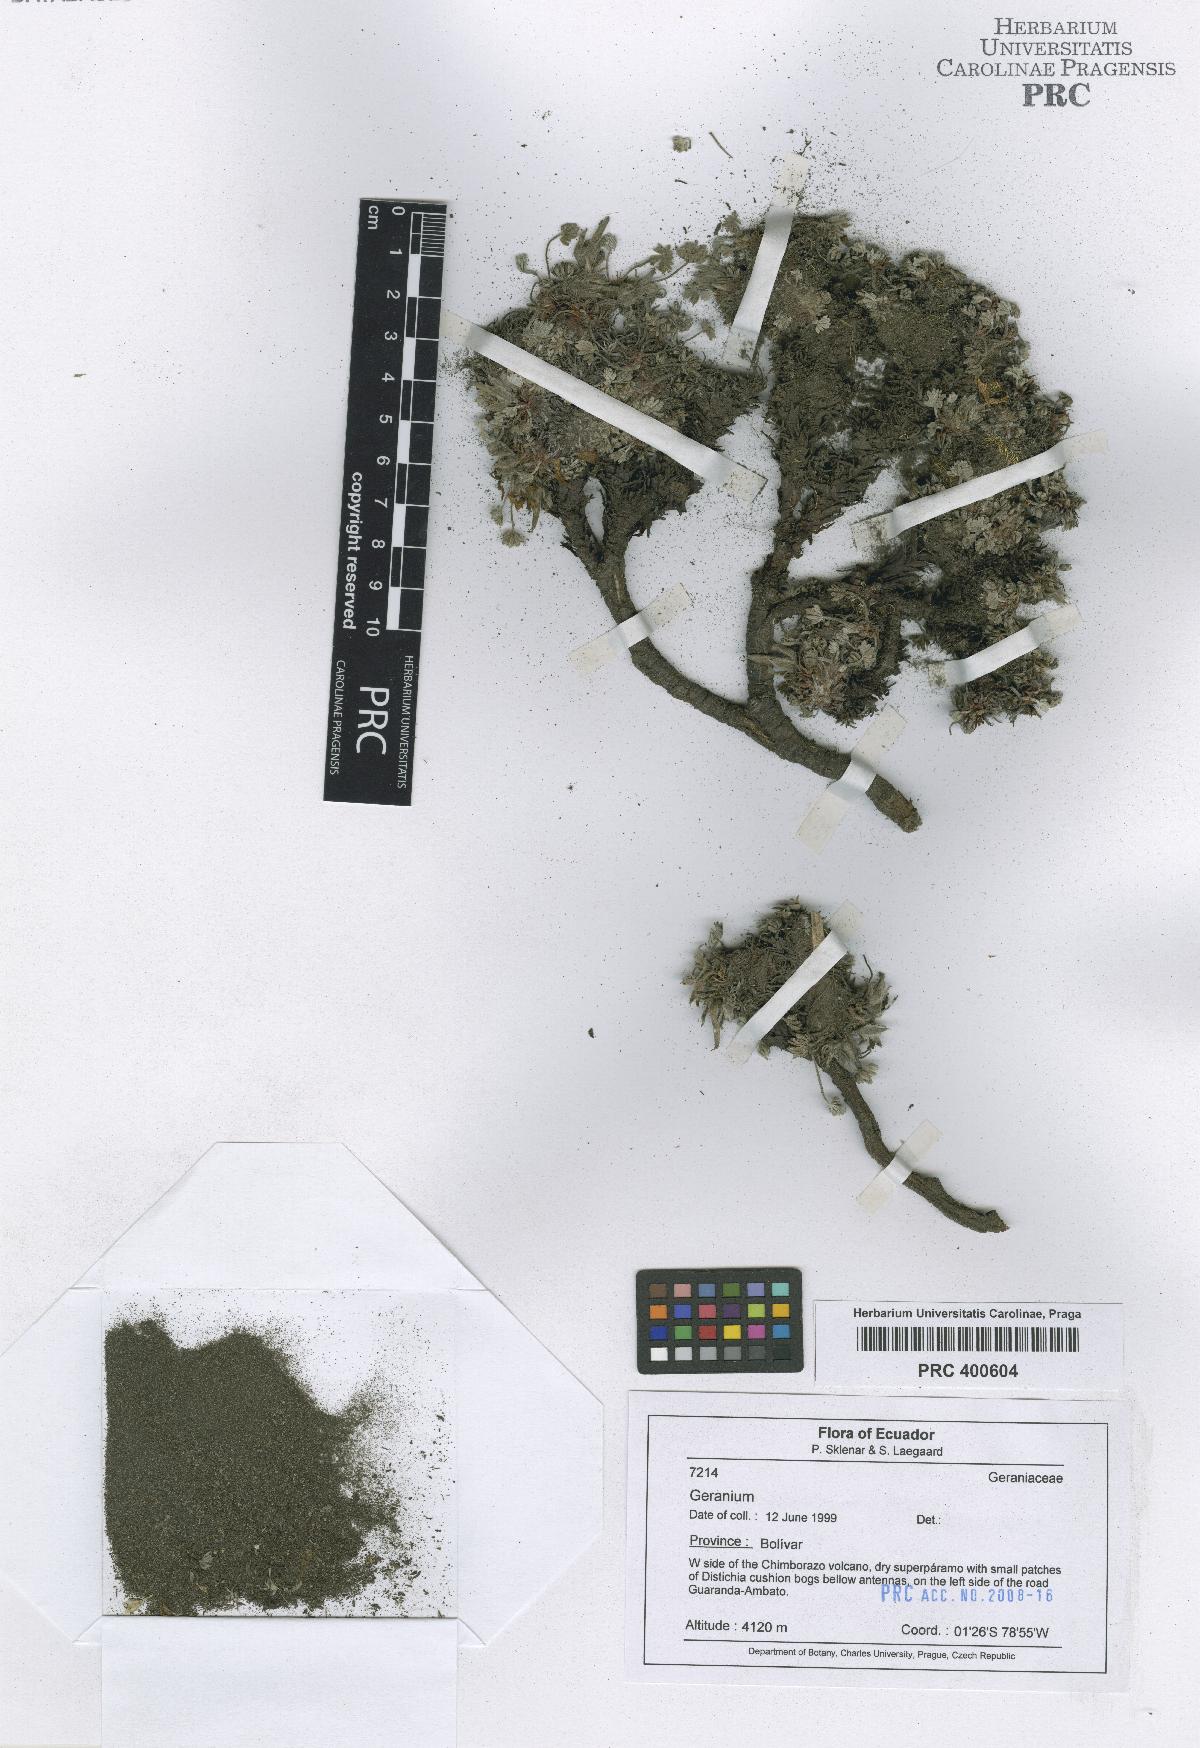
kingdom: Plantae
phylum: Tracheophyta
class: Magnoliopsida
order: Geraniales
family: Geraniaceae
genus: Geranium
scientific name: Geranium ecuadoriense
